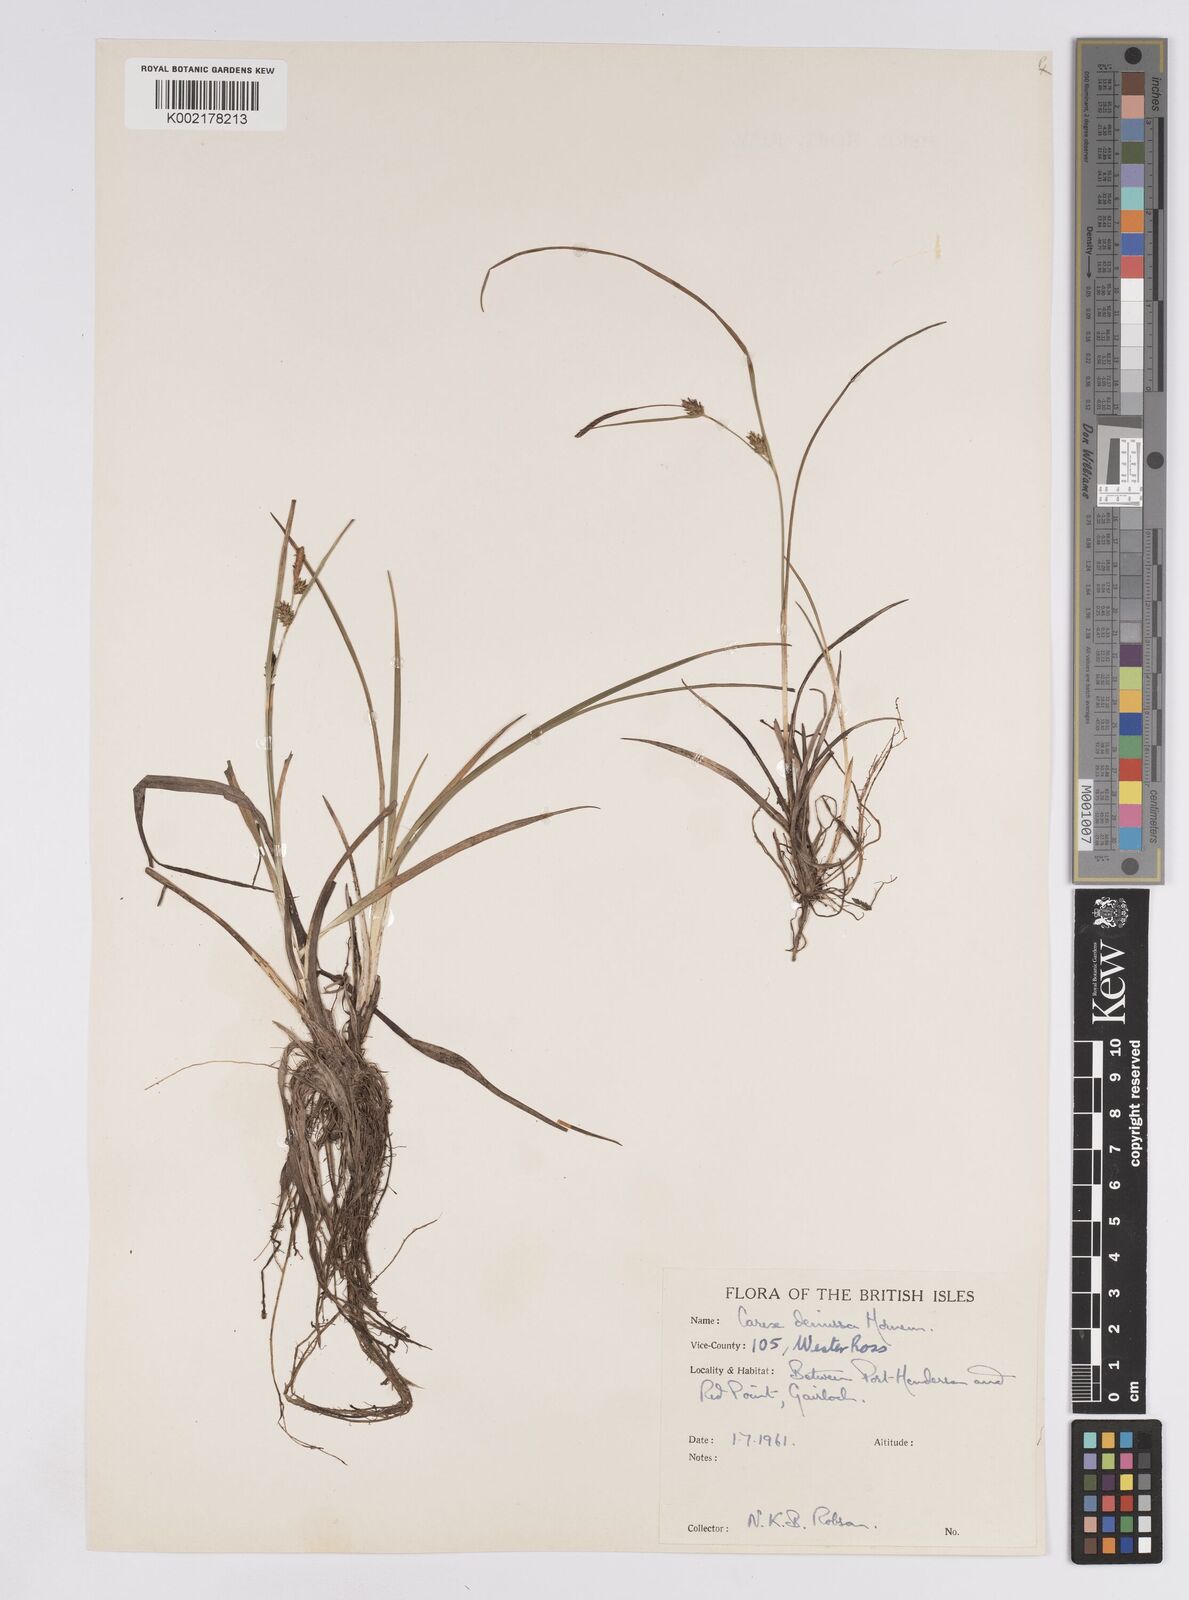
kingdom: Plantae
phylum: Tracheophyta
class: Liliopsida
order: Poales
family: Cyperaceae
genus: Carex
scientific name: Carex demissa
